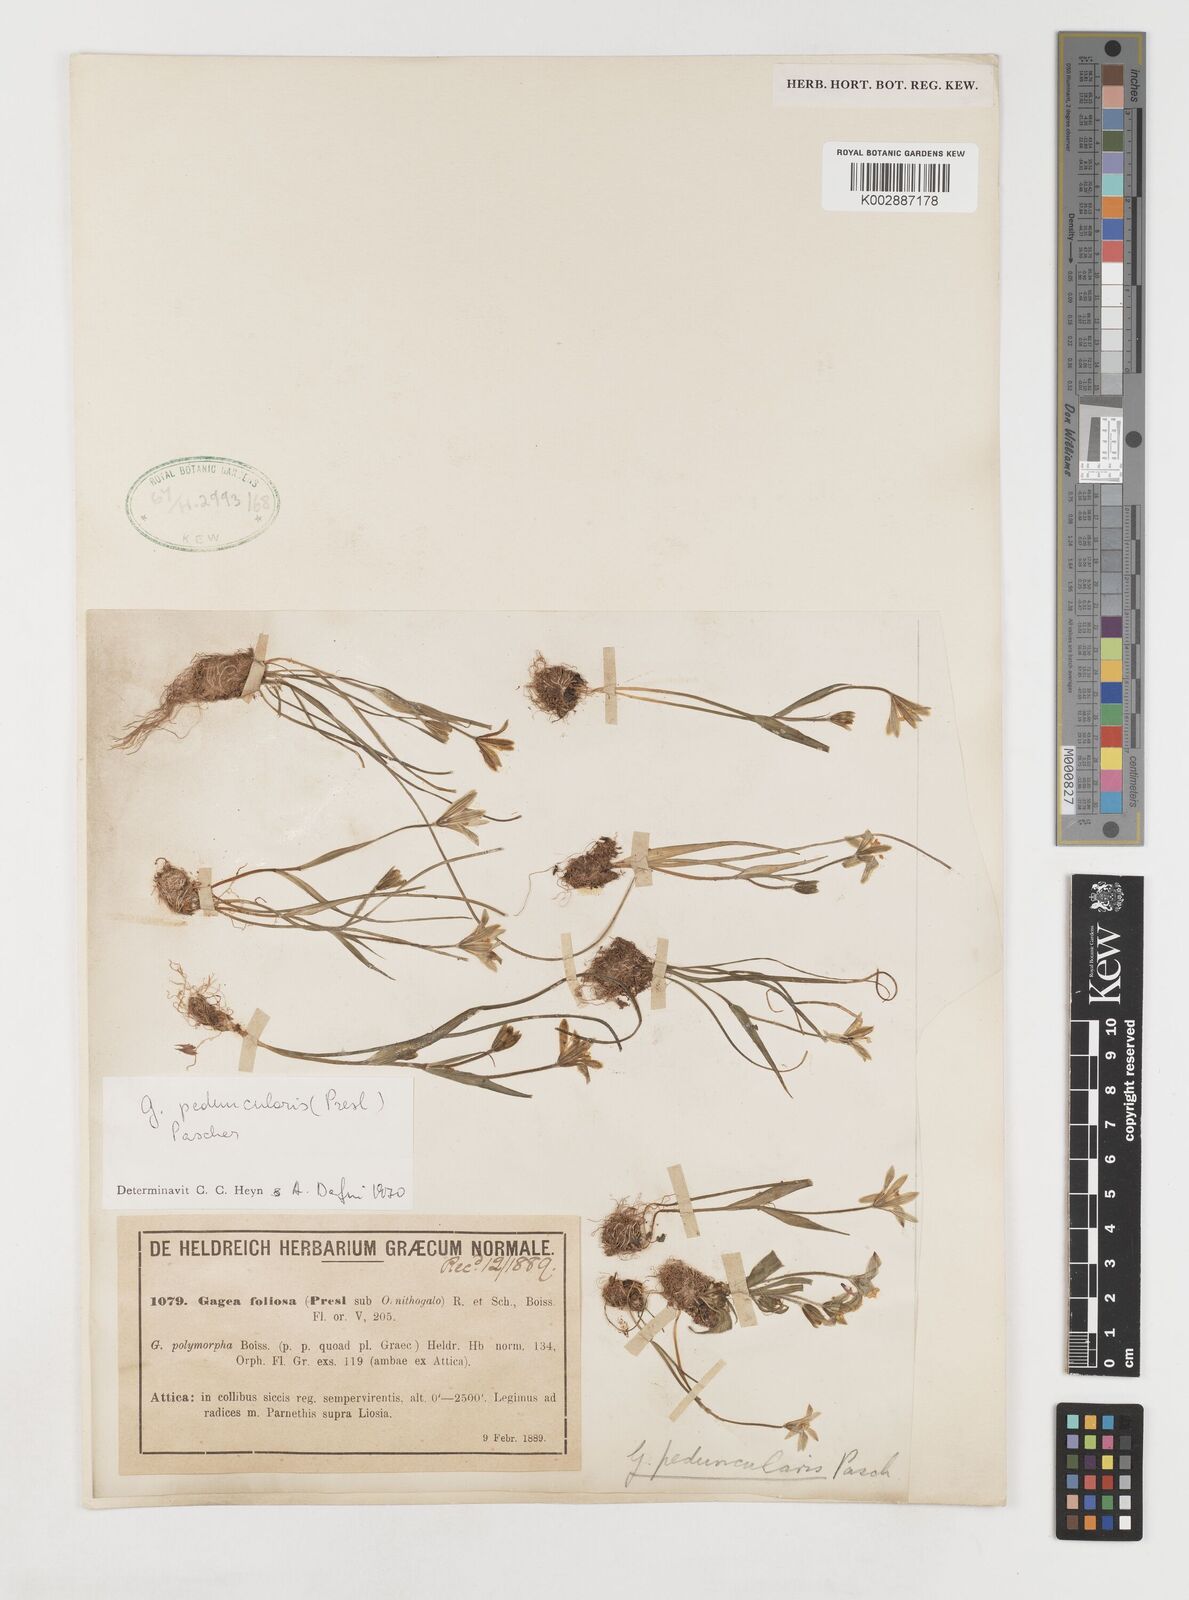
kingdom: Plantae
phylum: Tracheophyta
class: Liliopsida
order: Liliales
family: Liliaceae
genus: Gagea
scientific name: Gagea peduncularis
